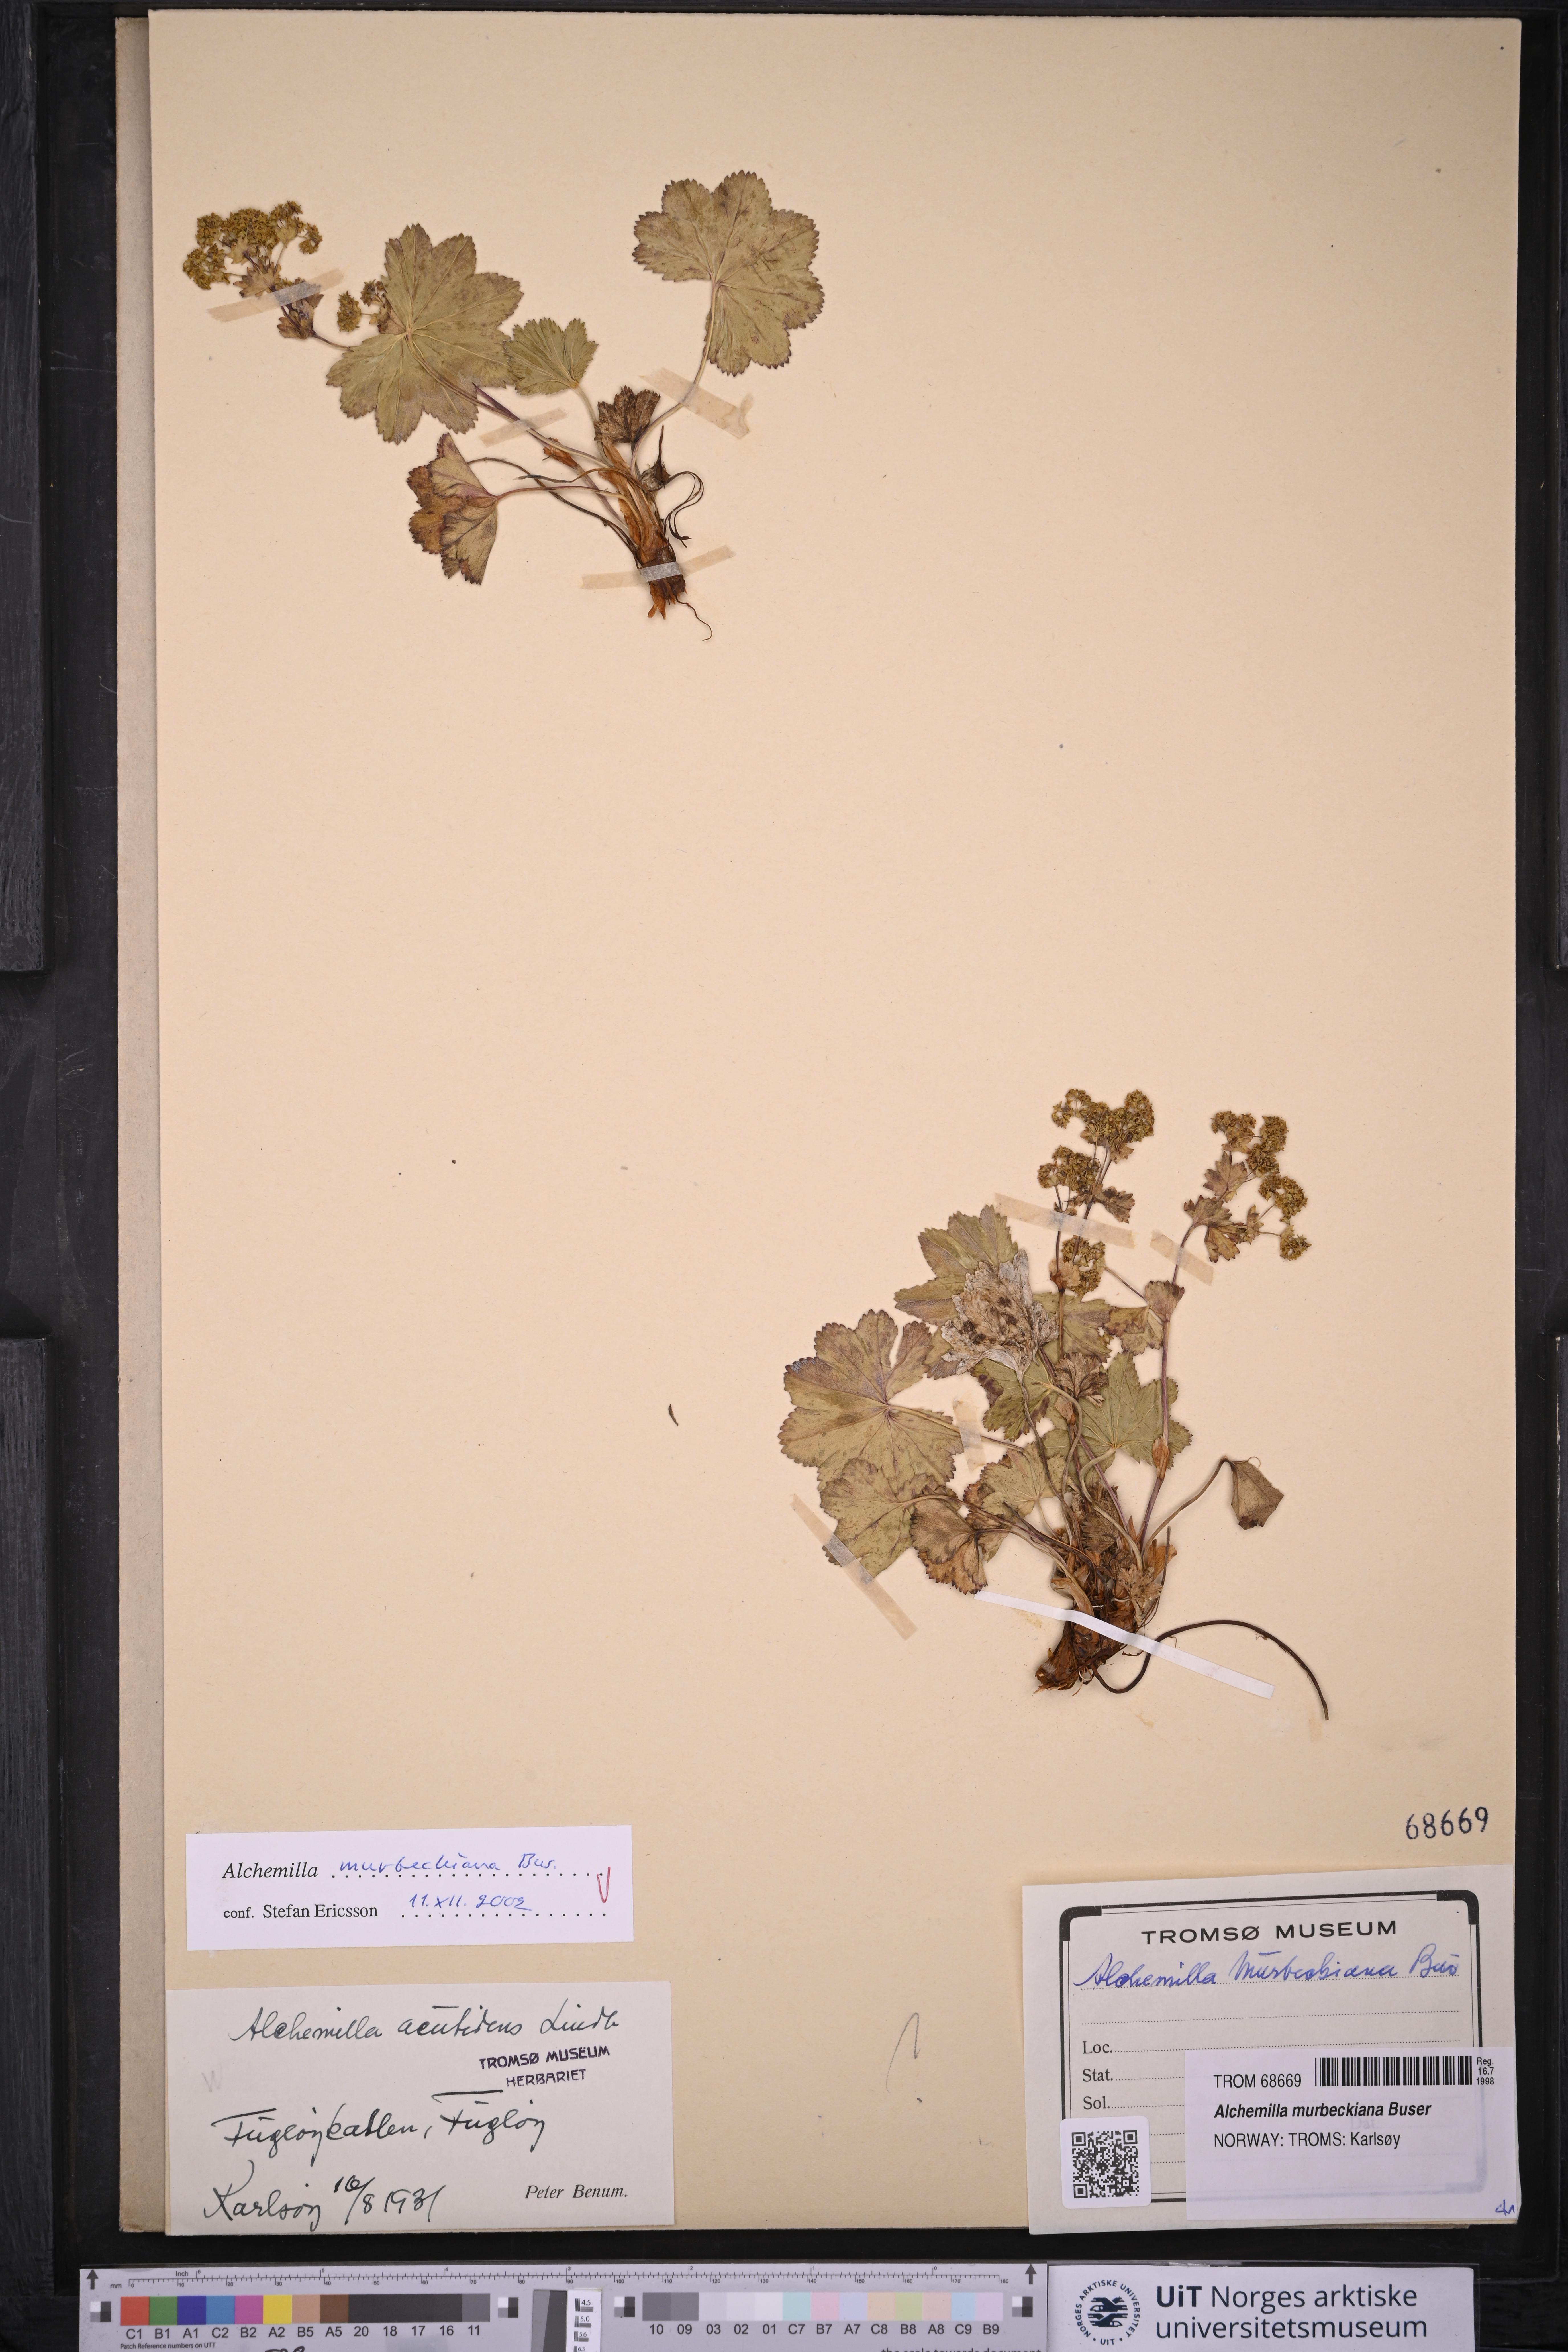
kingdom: Plantae
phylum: Tracheophyta
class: Magnoliopsida
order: Rosales
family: Rosaceae
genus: Alchemilla
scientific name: Alchemilla murbeckiana
